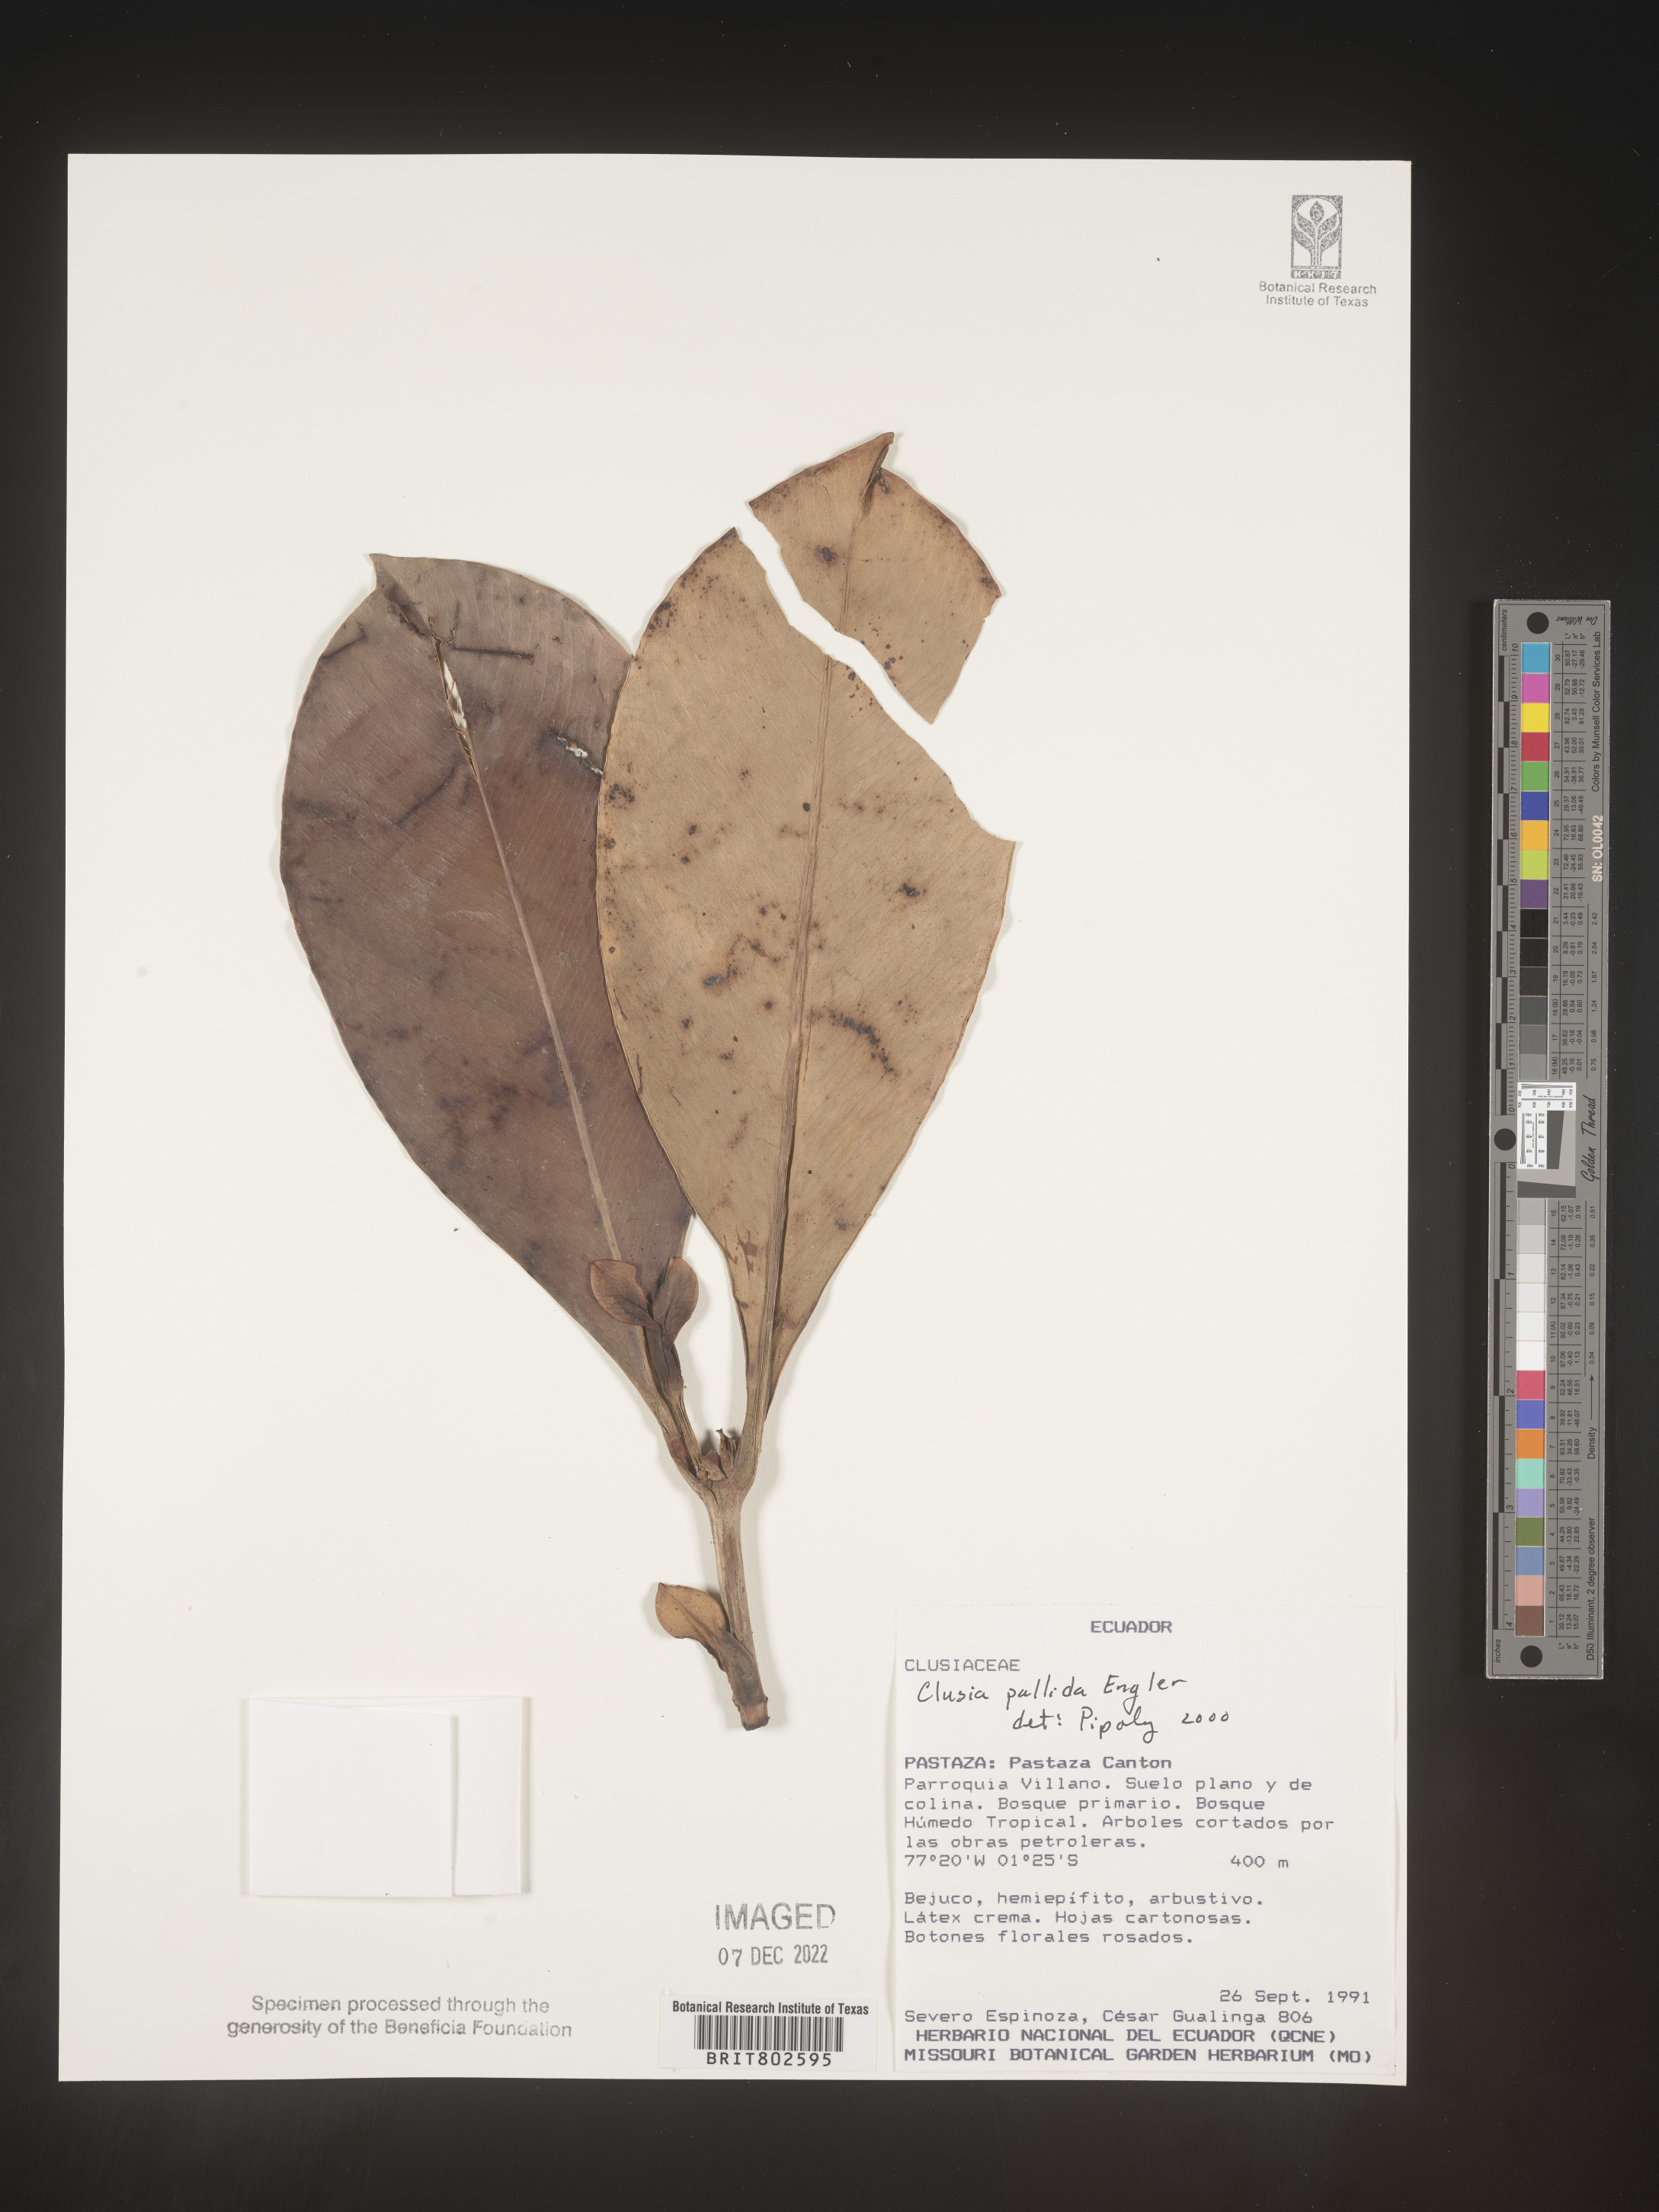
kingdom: Plantae
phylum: Tracheophyta
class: Magnoliopsida
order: Malpighiales
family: Clusiaceae
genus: Clusia
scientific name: Clusia pallida
